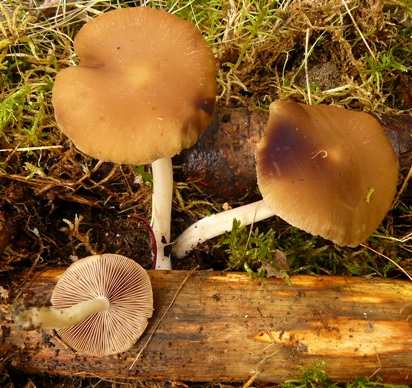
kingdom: Fungi
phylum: Basidiomycota
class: Agaricomycetes
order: Agaricales
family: Psathyrellaceae
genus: Psathyrella
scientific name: Psathyrella spadiceogrisea
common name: gråbrun mørkhat
